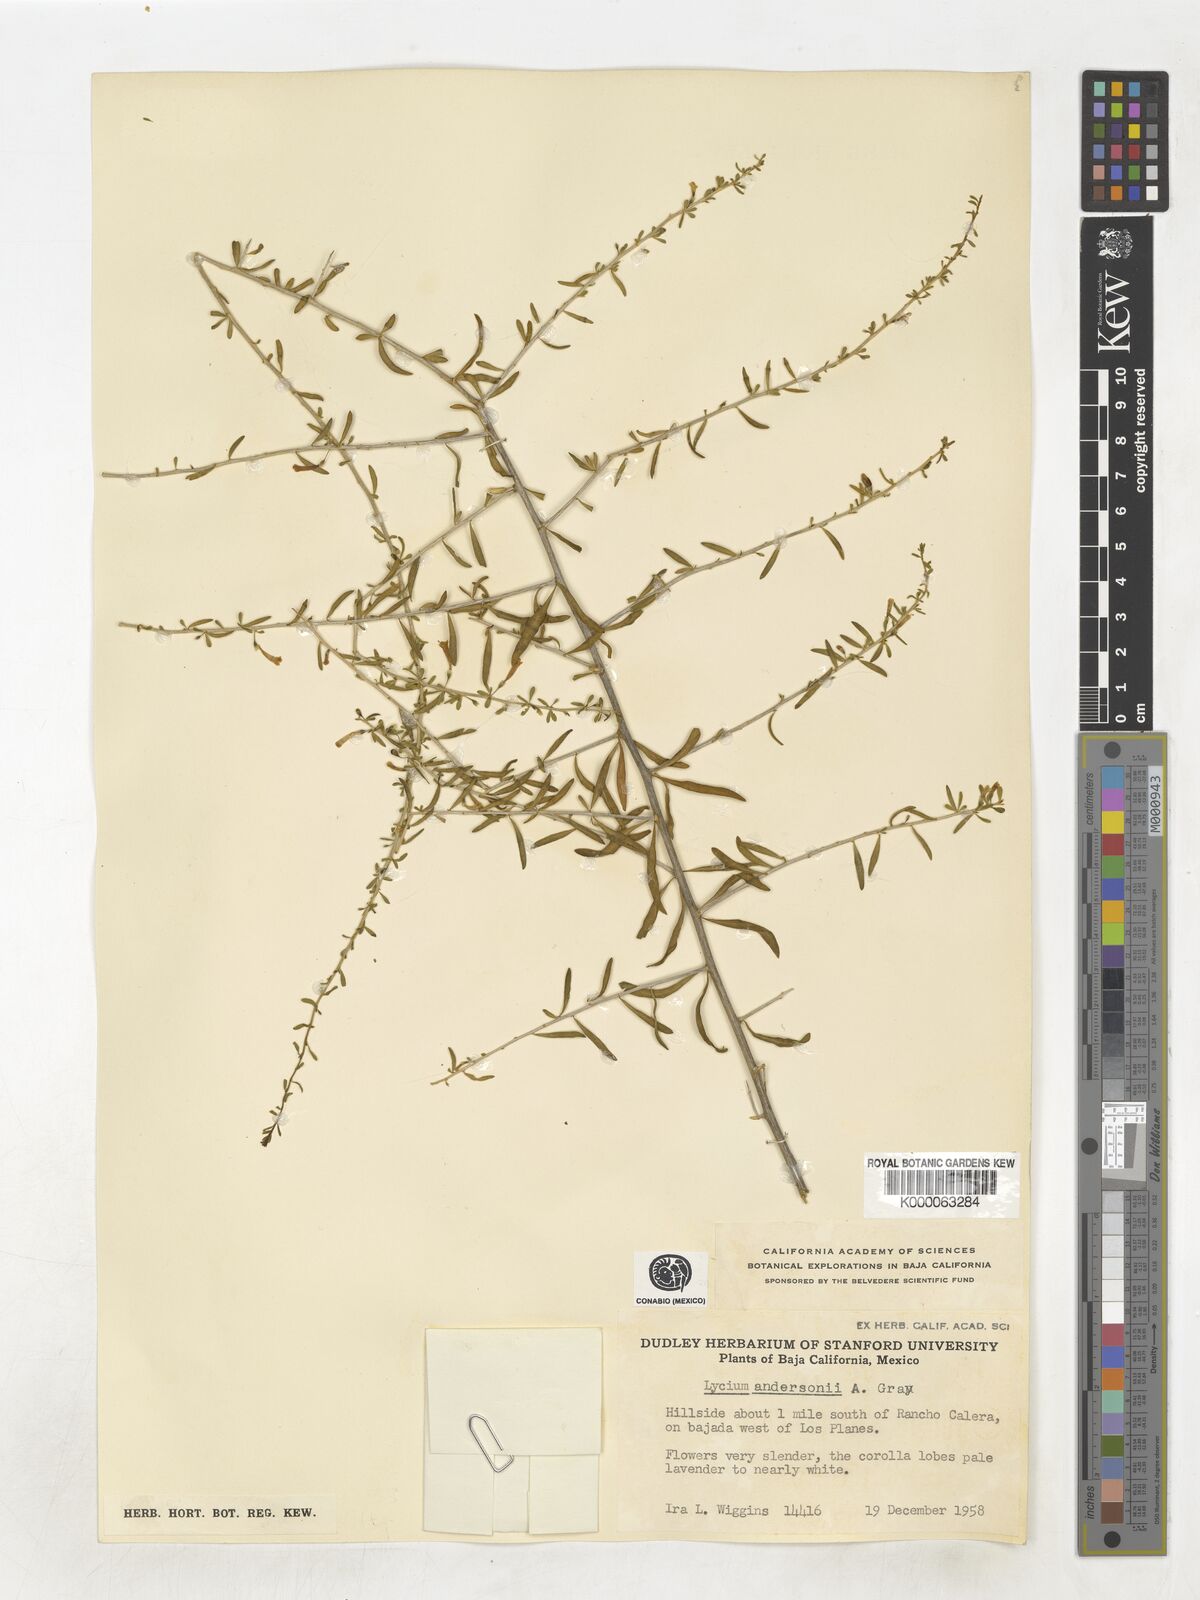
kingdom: Plantae
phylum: Tracheophyta
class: Magnoliopsida
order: Solanales
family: Solanaceae
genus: Lycium
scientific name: Lycium andersonii
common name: Water-jacket
